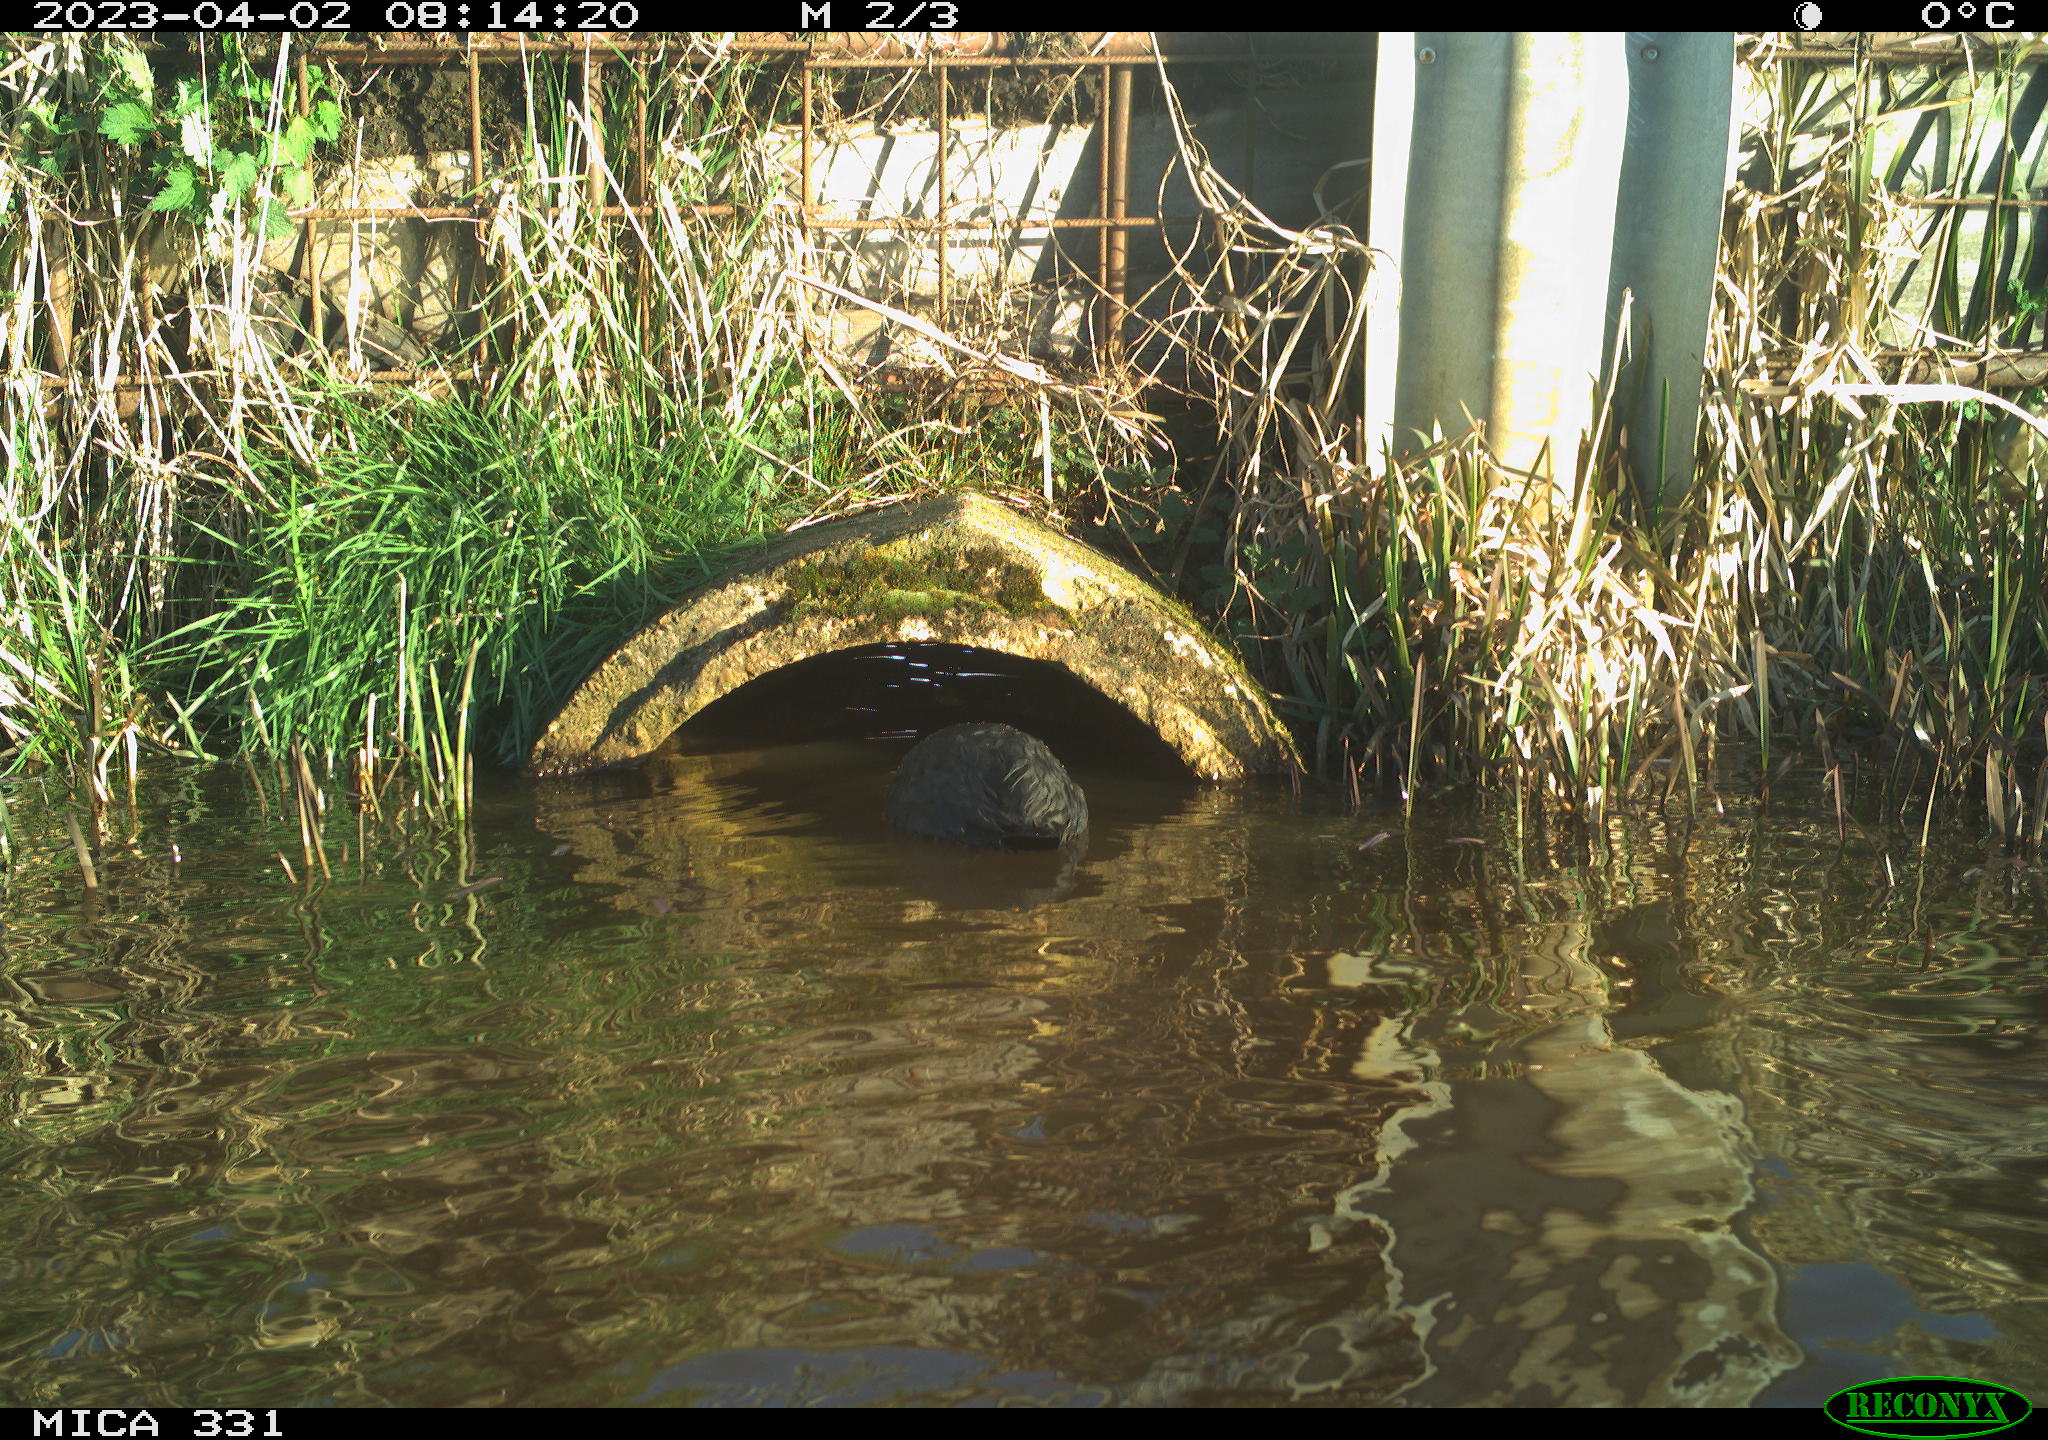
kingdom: Animalia
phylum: Chordata
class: Aves
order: Gruiformes
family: Rallidae
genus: Gallinula
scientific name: Gallinula chloropus
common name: Common moorhen
